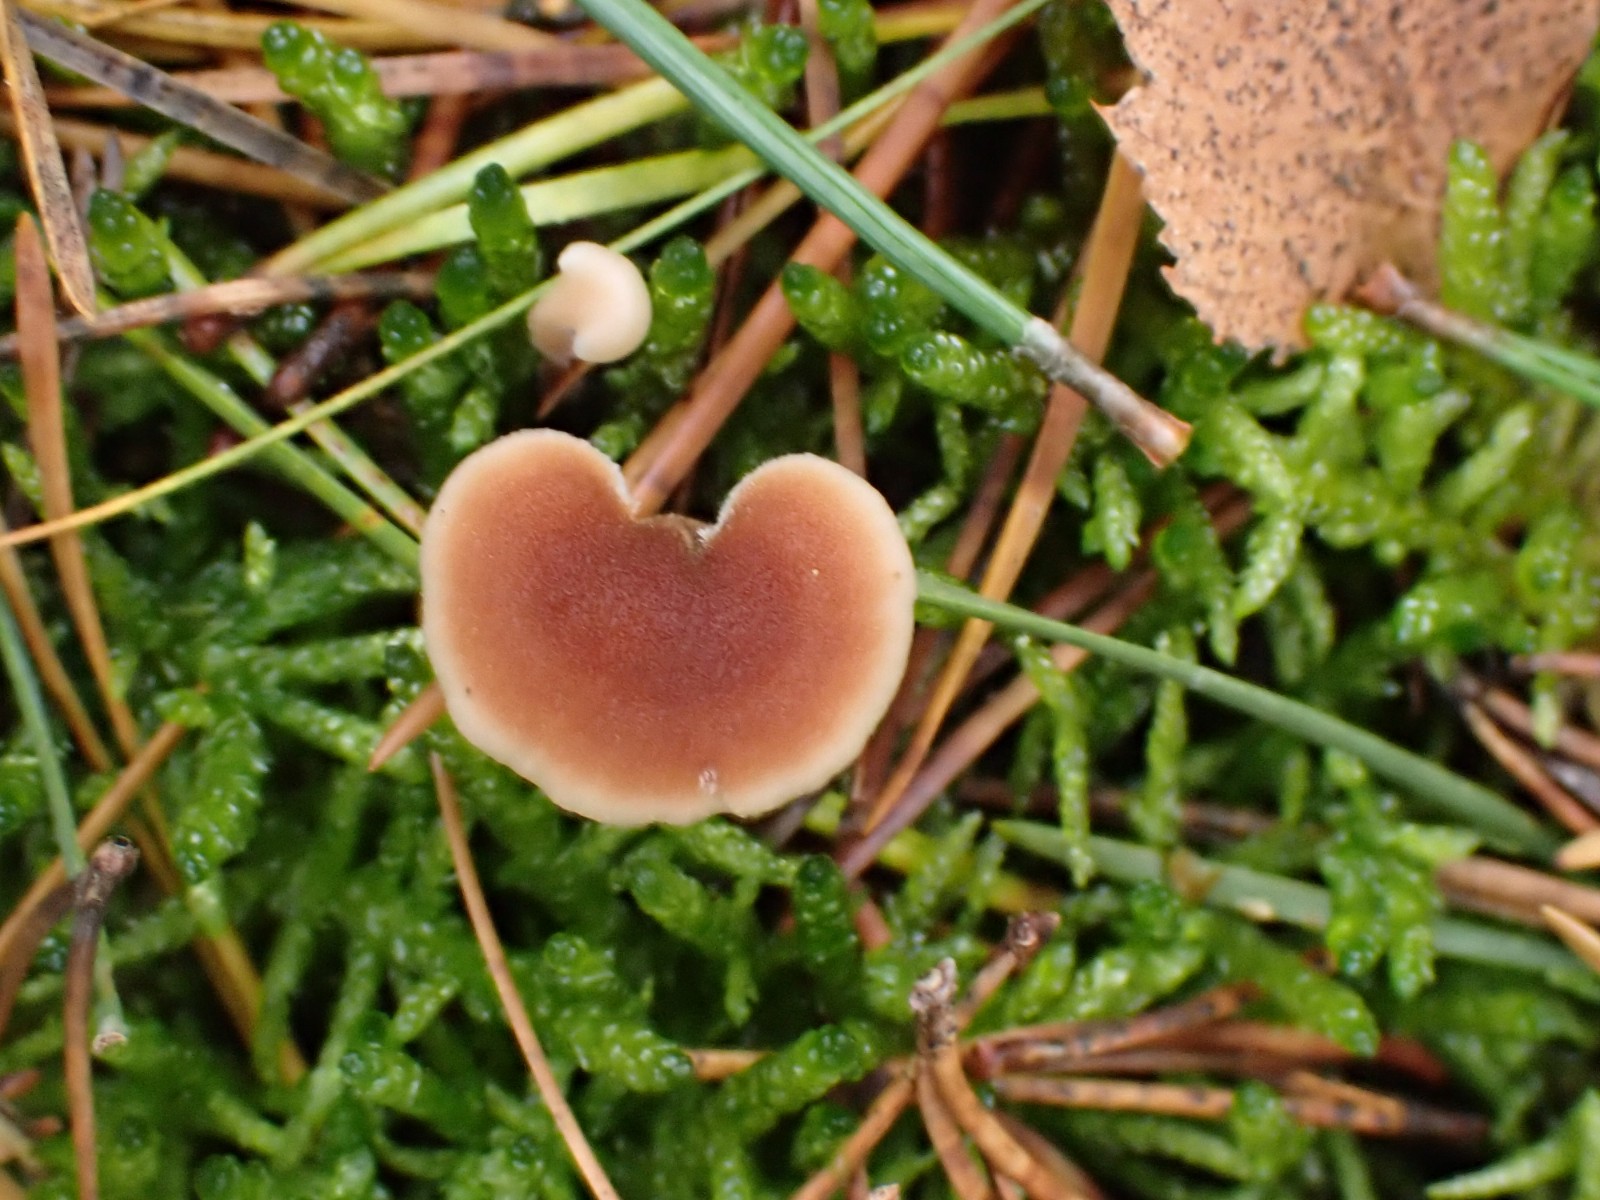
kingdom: Fungi
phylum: Basidiomycota
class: Agaricomycetes
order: Russulales
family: Auriscalpiaceae
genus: Auriscalpium
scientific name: Auriscalpium vulgare
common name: koglepigsvamp
